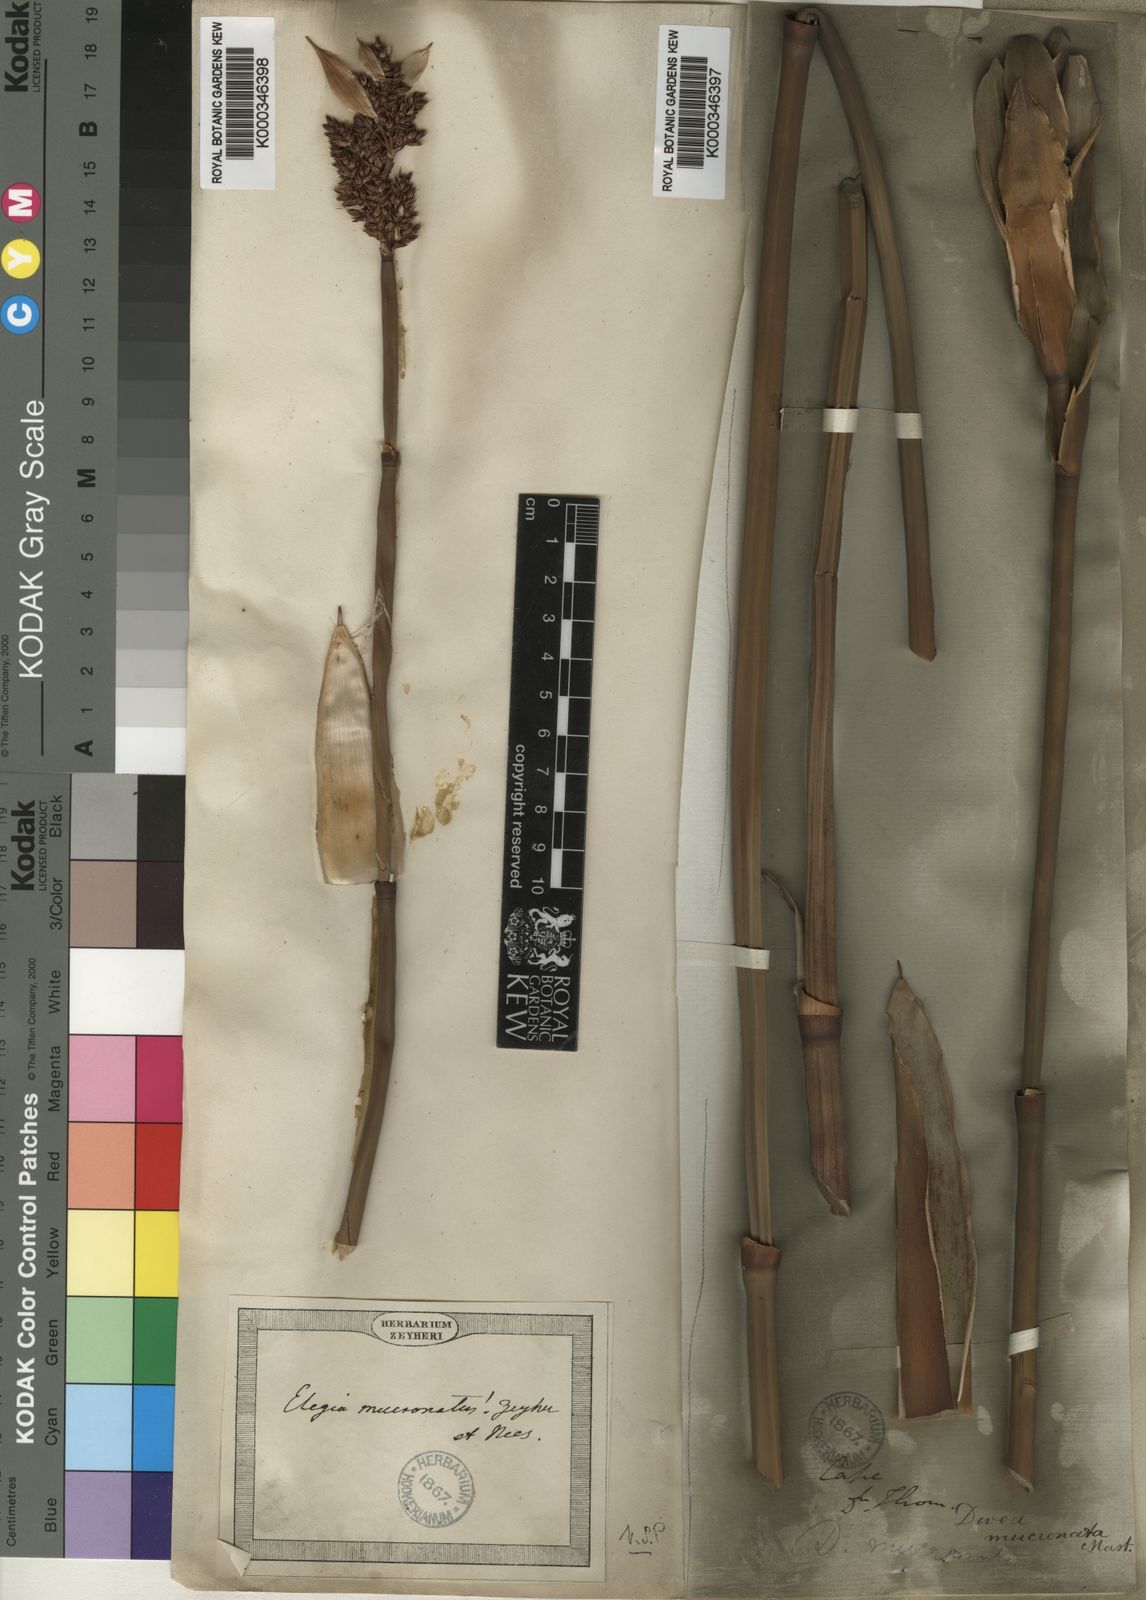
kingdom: Plantae
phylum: Tracheophyta
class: Liliopsida
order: Poales
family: Restionaceae
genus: Elegia
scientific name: Elegia mucronata
